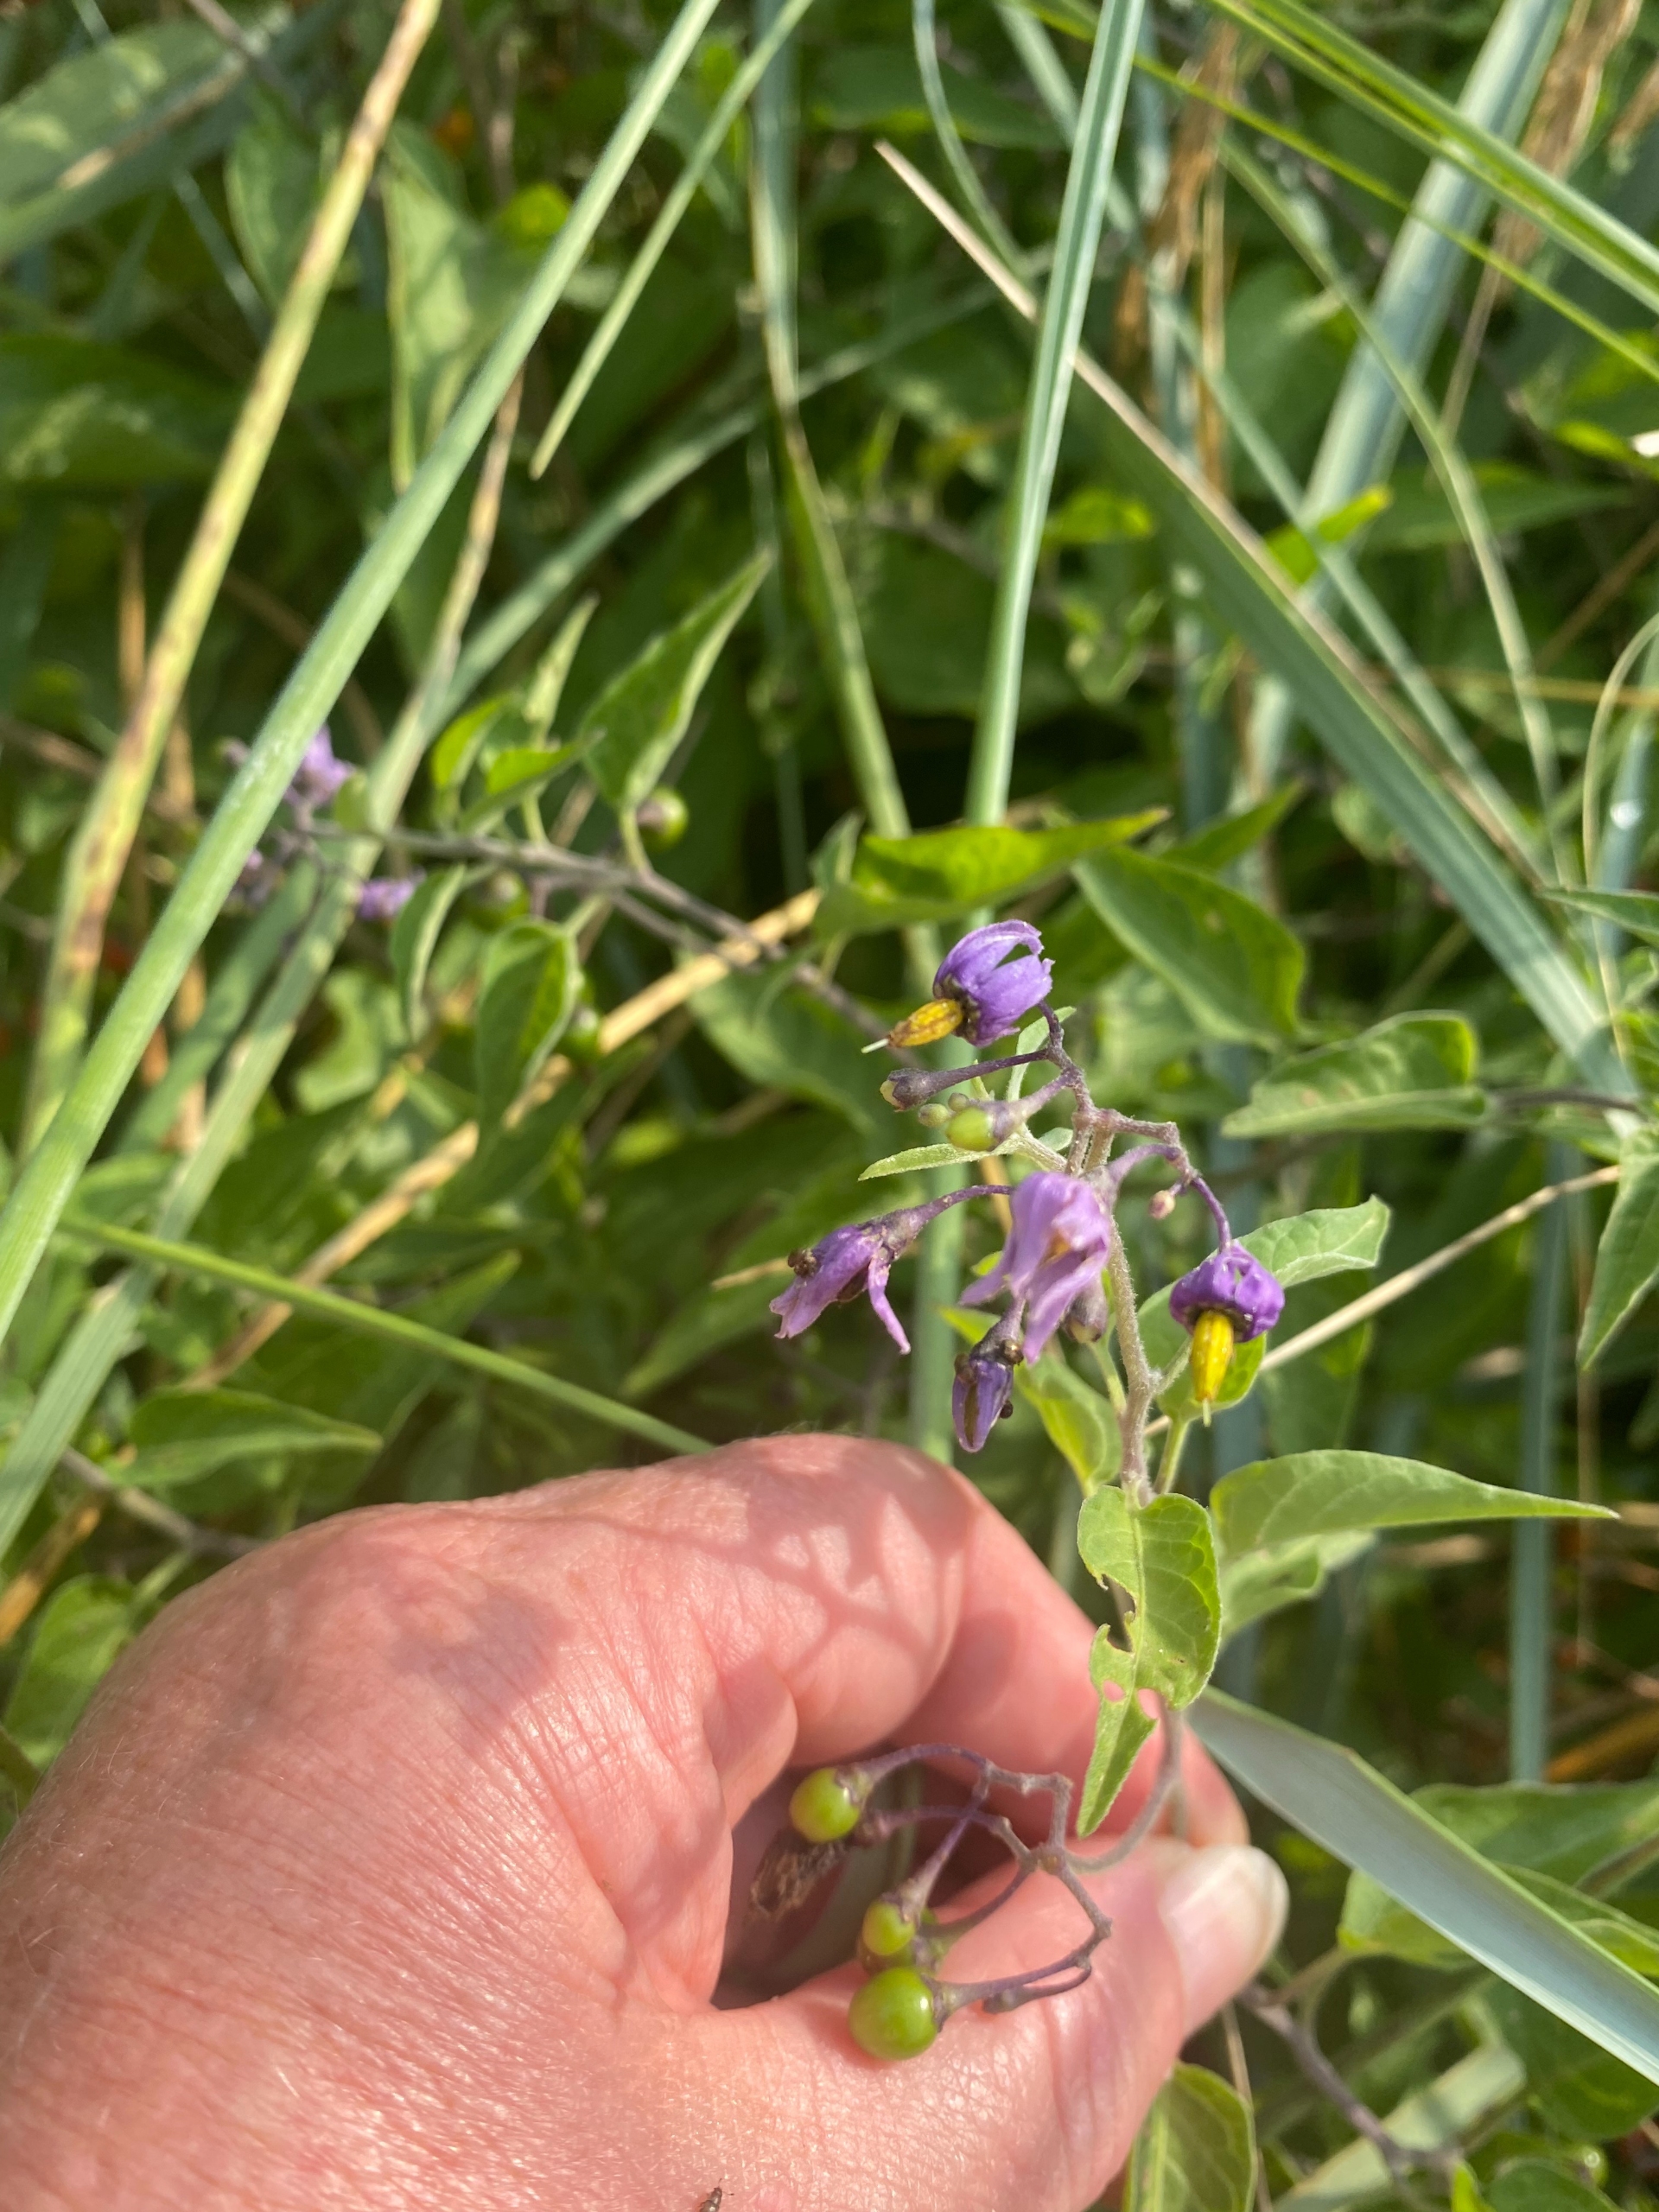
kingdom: Plantae
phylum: Tracheophyta
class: Magnoliopsida
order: Solanales
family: Solanaceae
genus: Solanum
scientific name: Solanum dulcamara
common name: Bittersød natskygge
